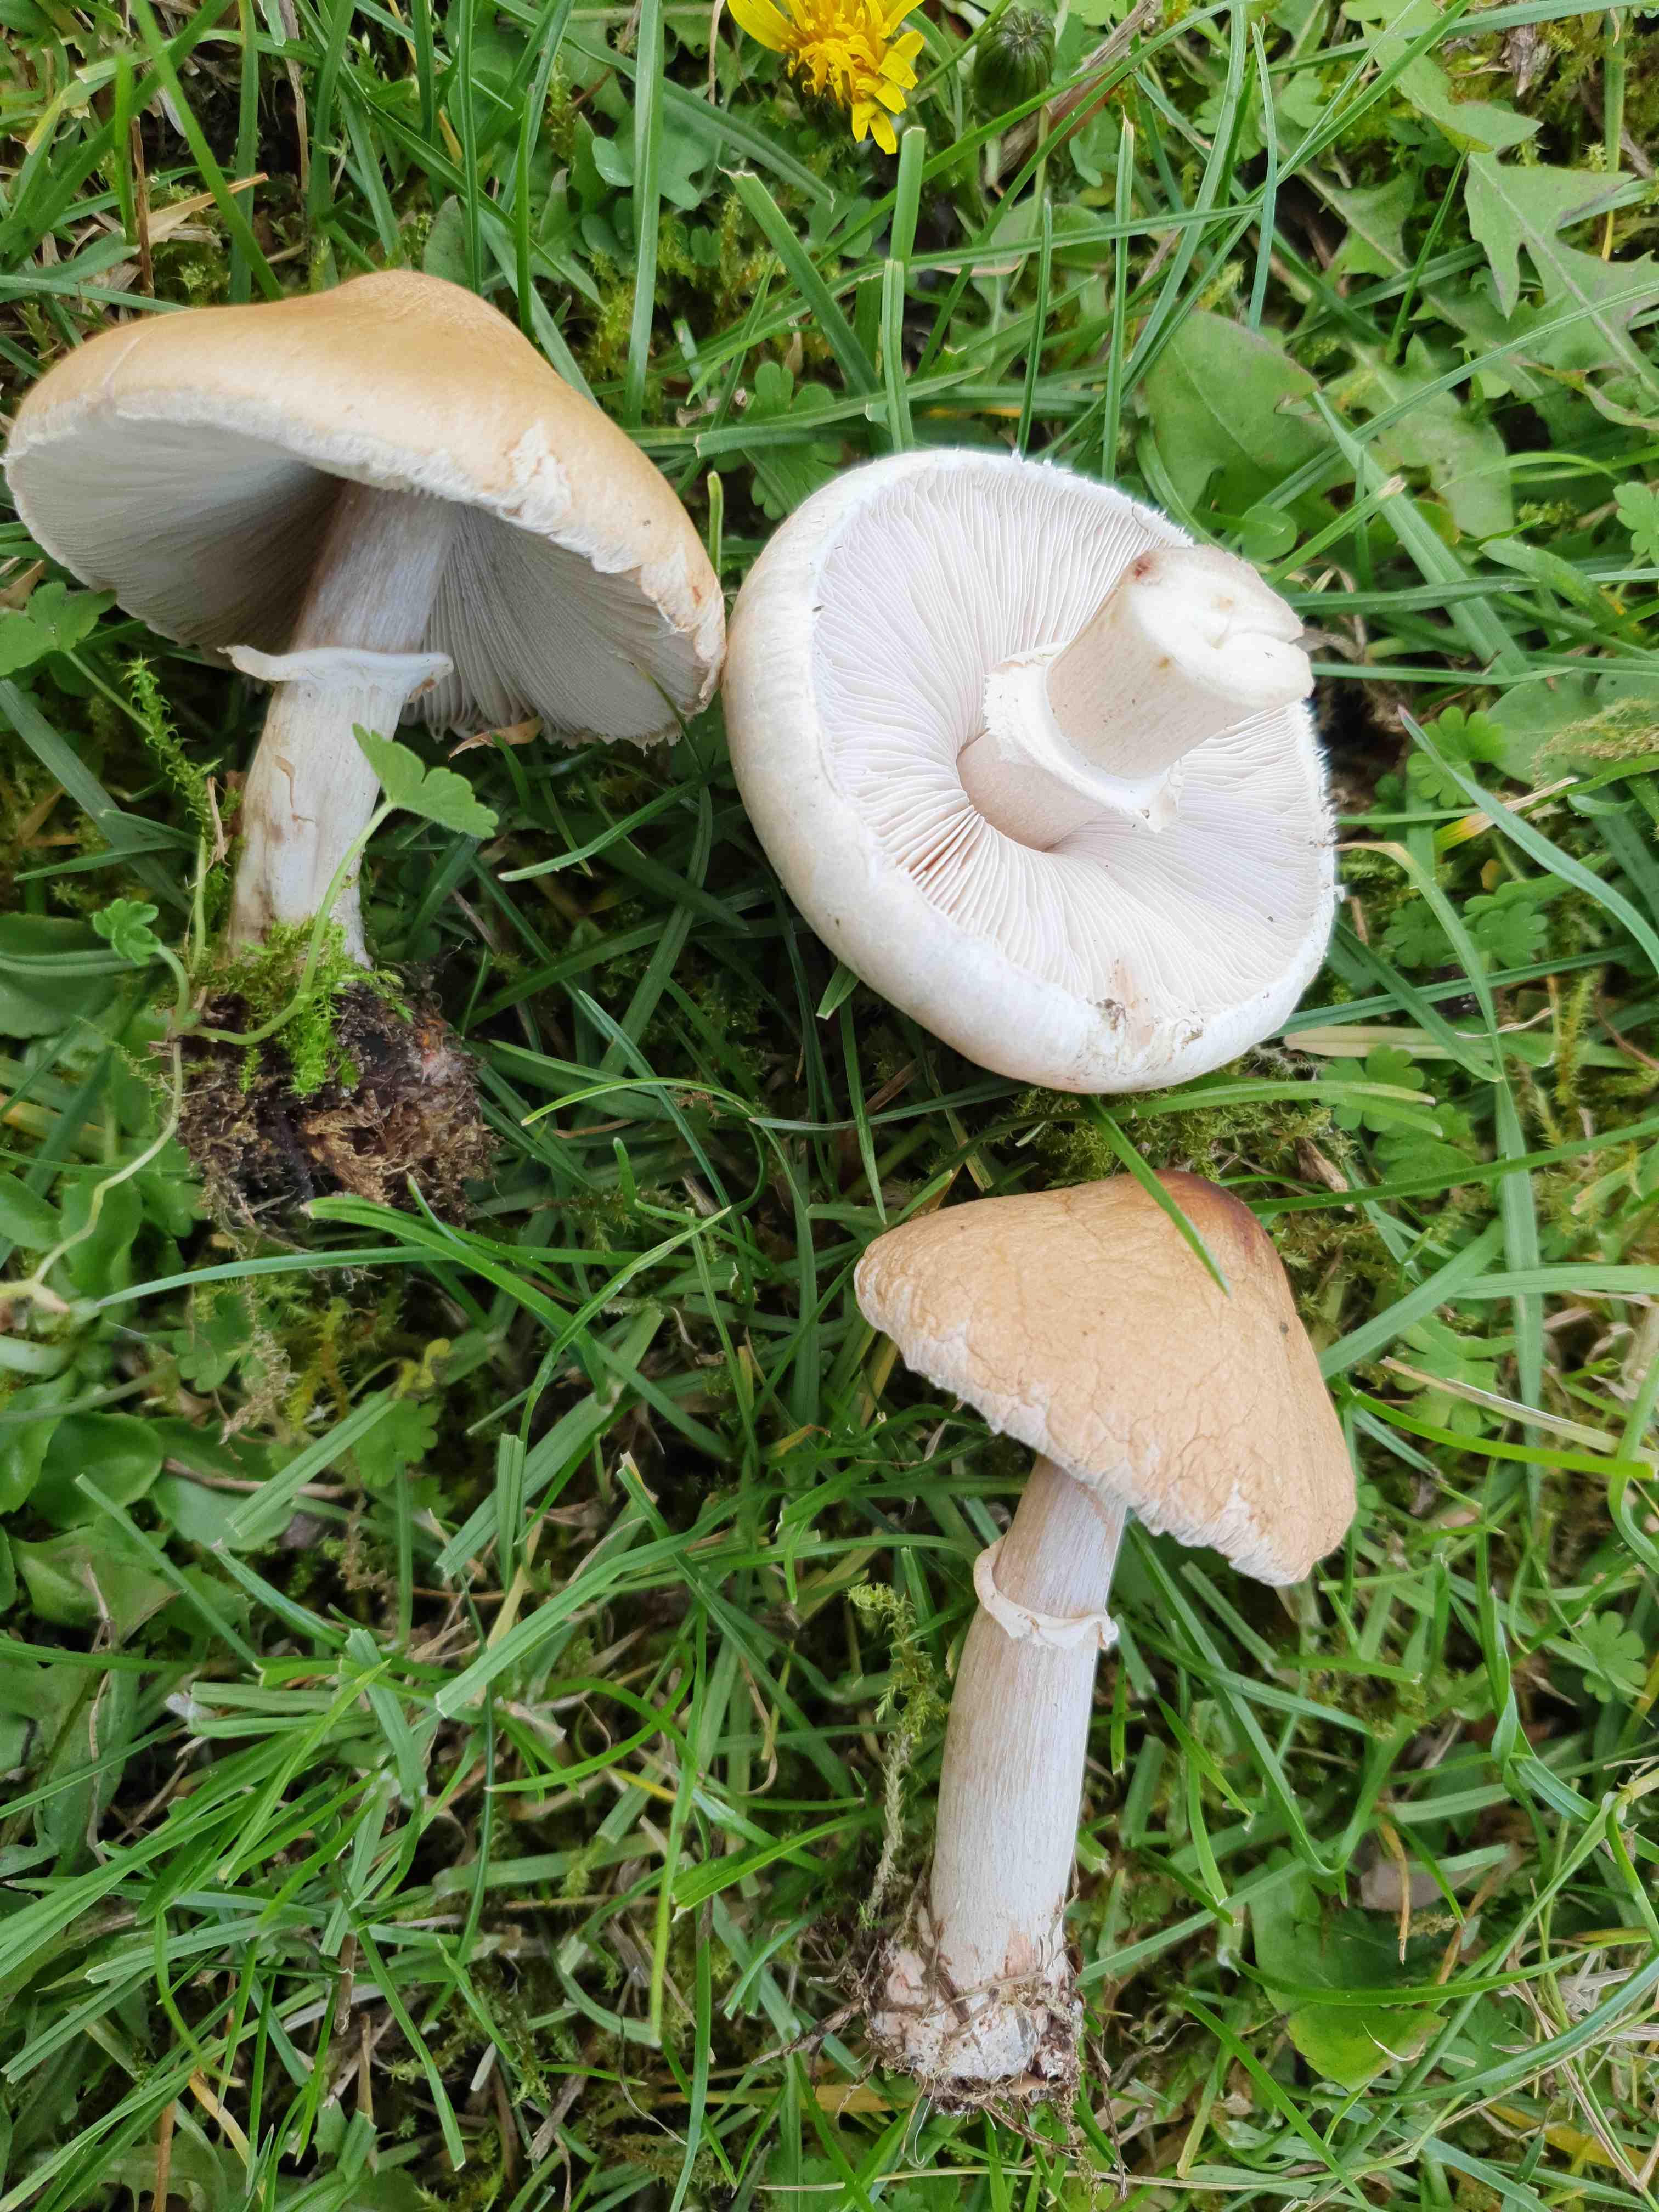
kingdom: Fungi
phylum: Basidiomycota
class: Agaricomycetes
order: Agaricales
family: Agaricaceae
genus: Macrolepiota
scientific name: Macrolepiota excoriata
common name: mark-kæmpeparasolhat
